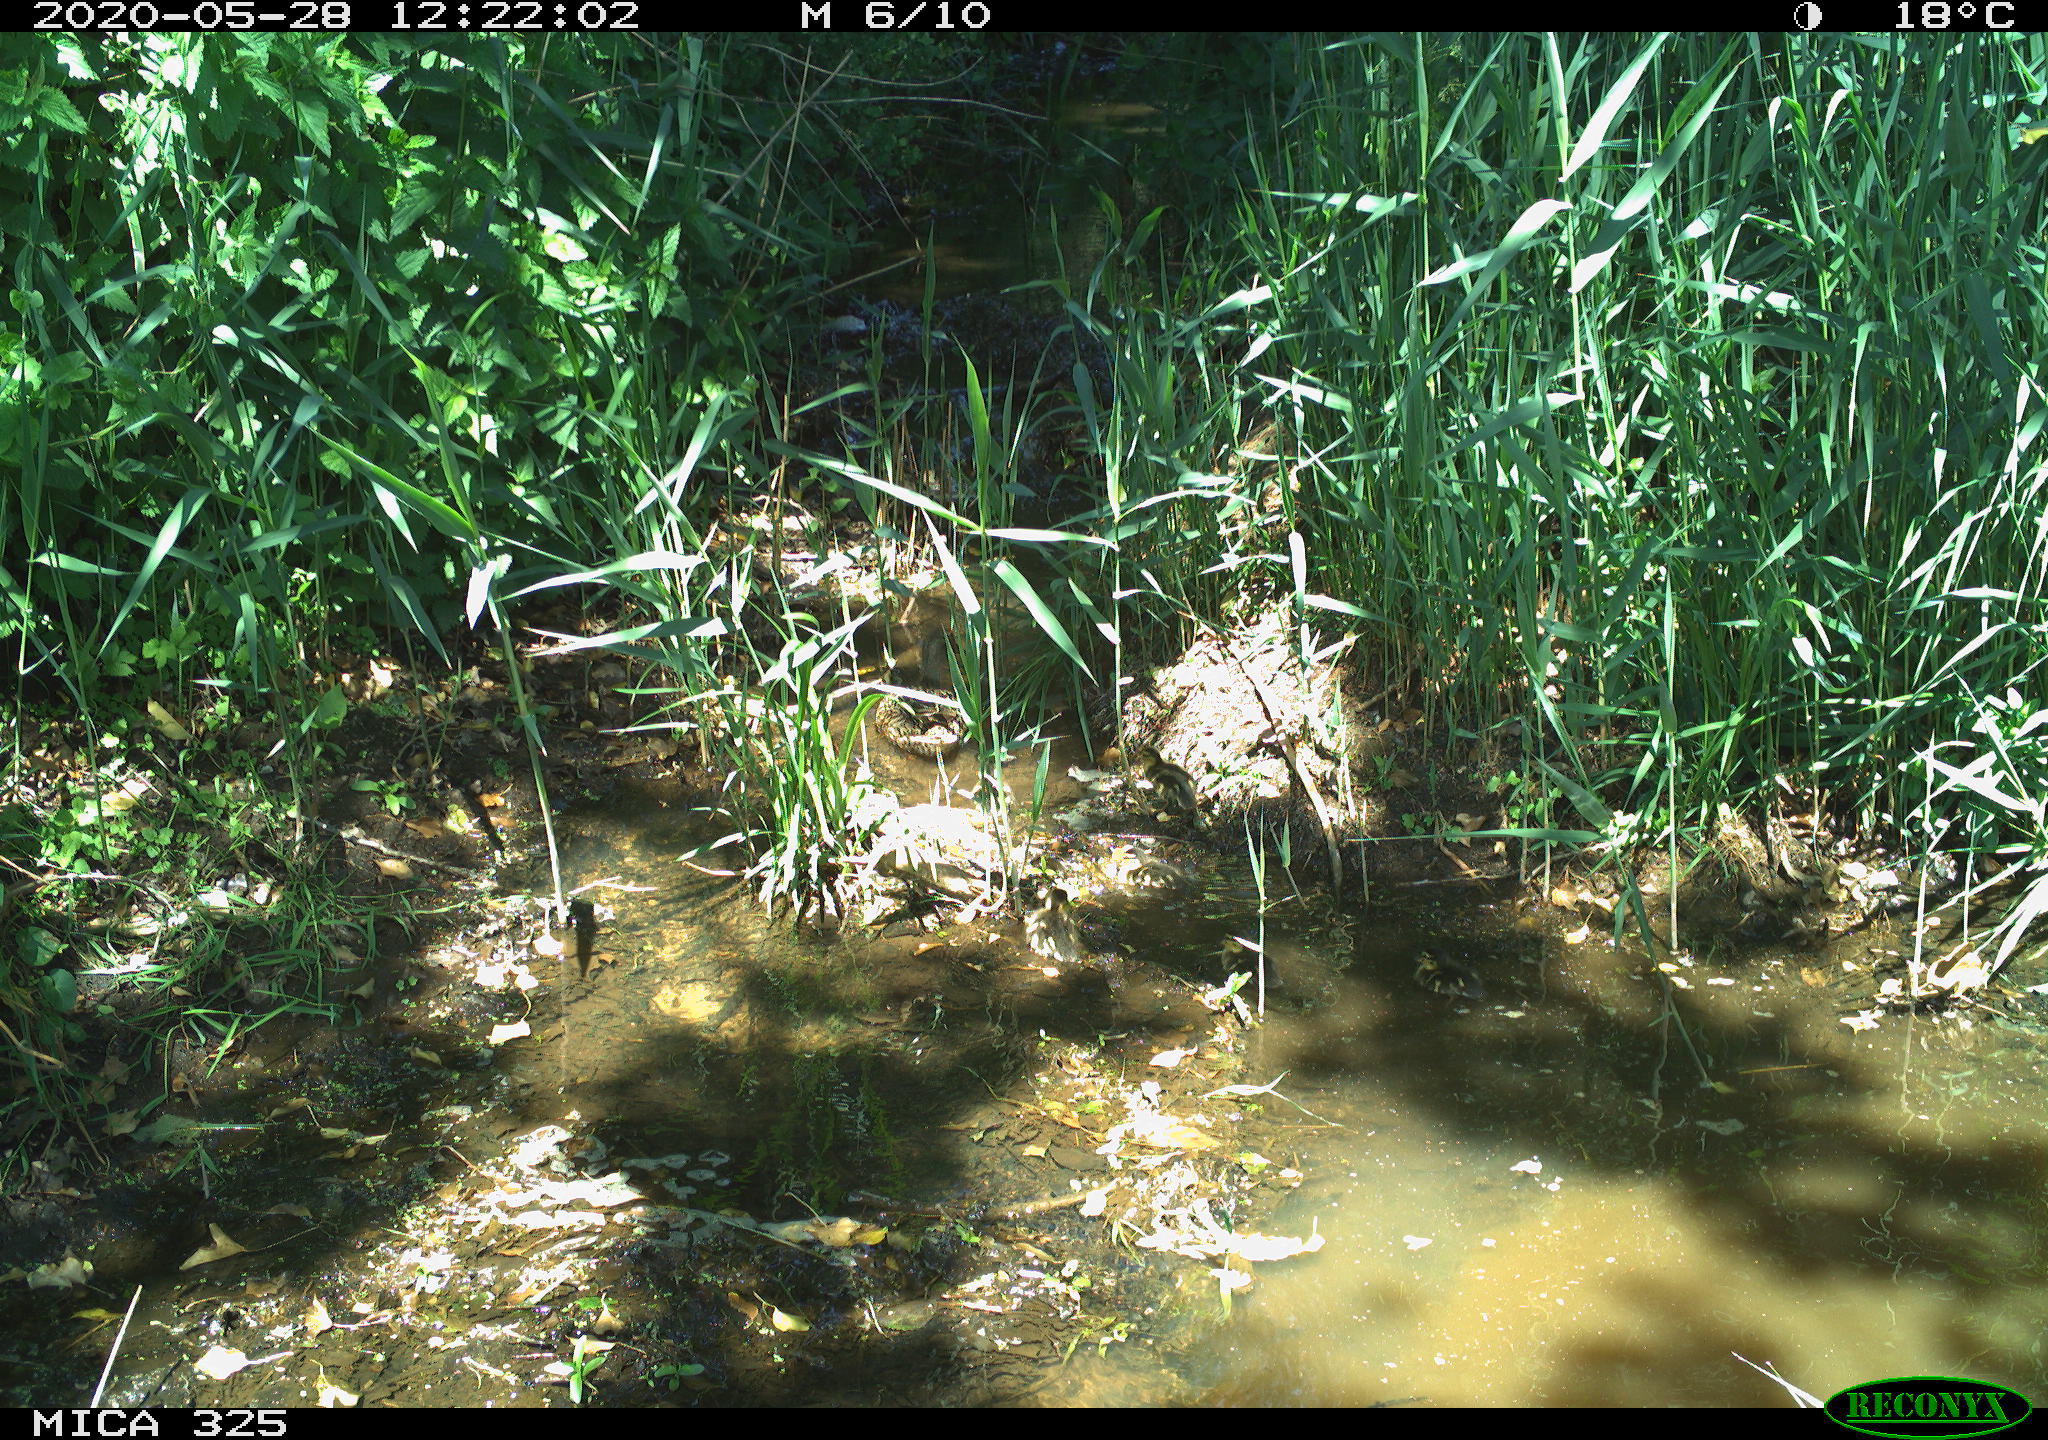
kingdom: Animalia
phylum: Chordata
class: Aves
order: Anseriformes
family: Anatidae
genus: Anas
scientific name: Anas platyrhynchos
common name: Mallard
